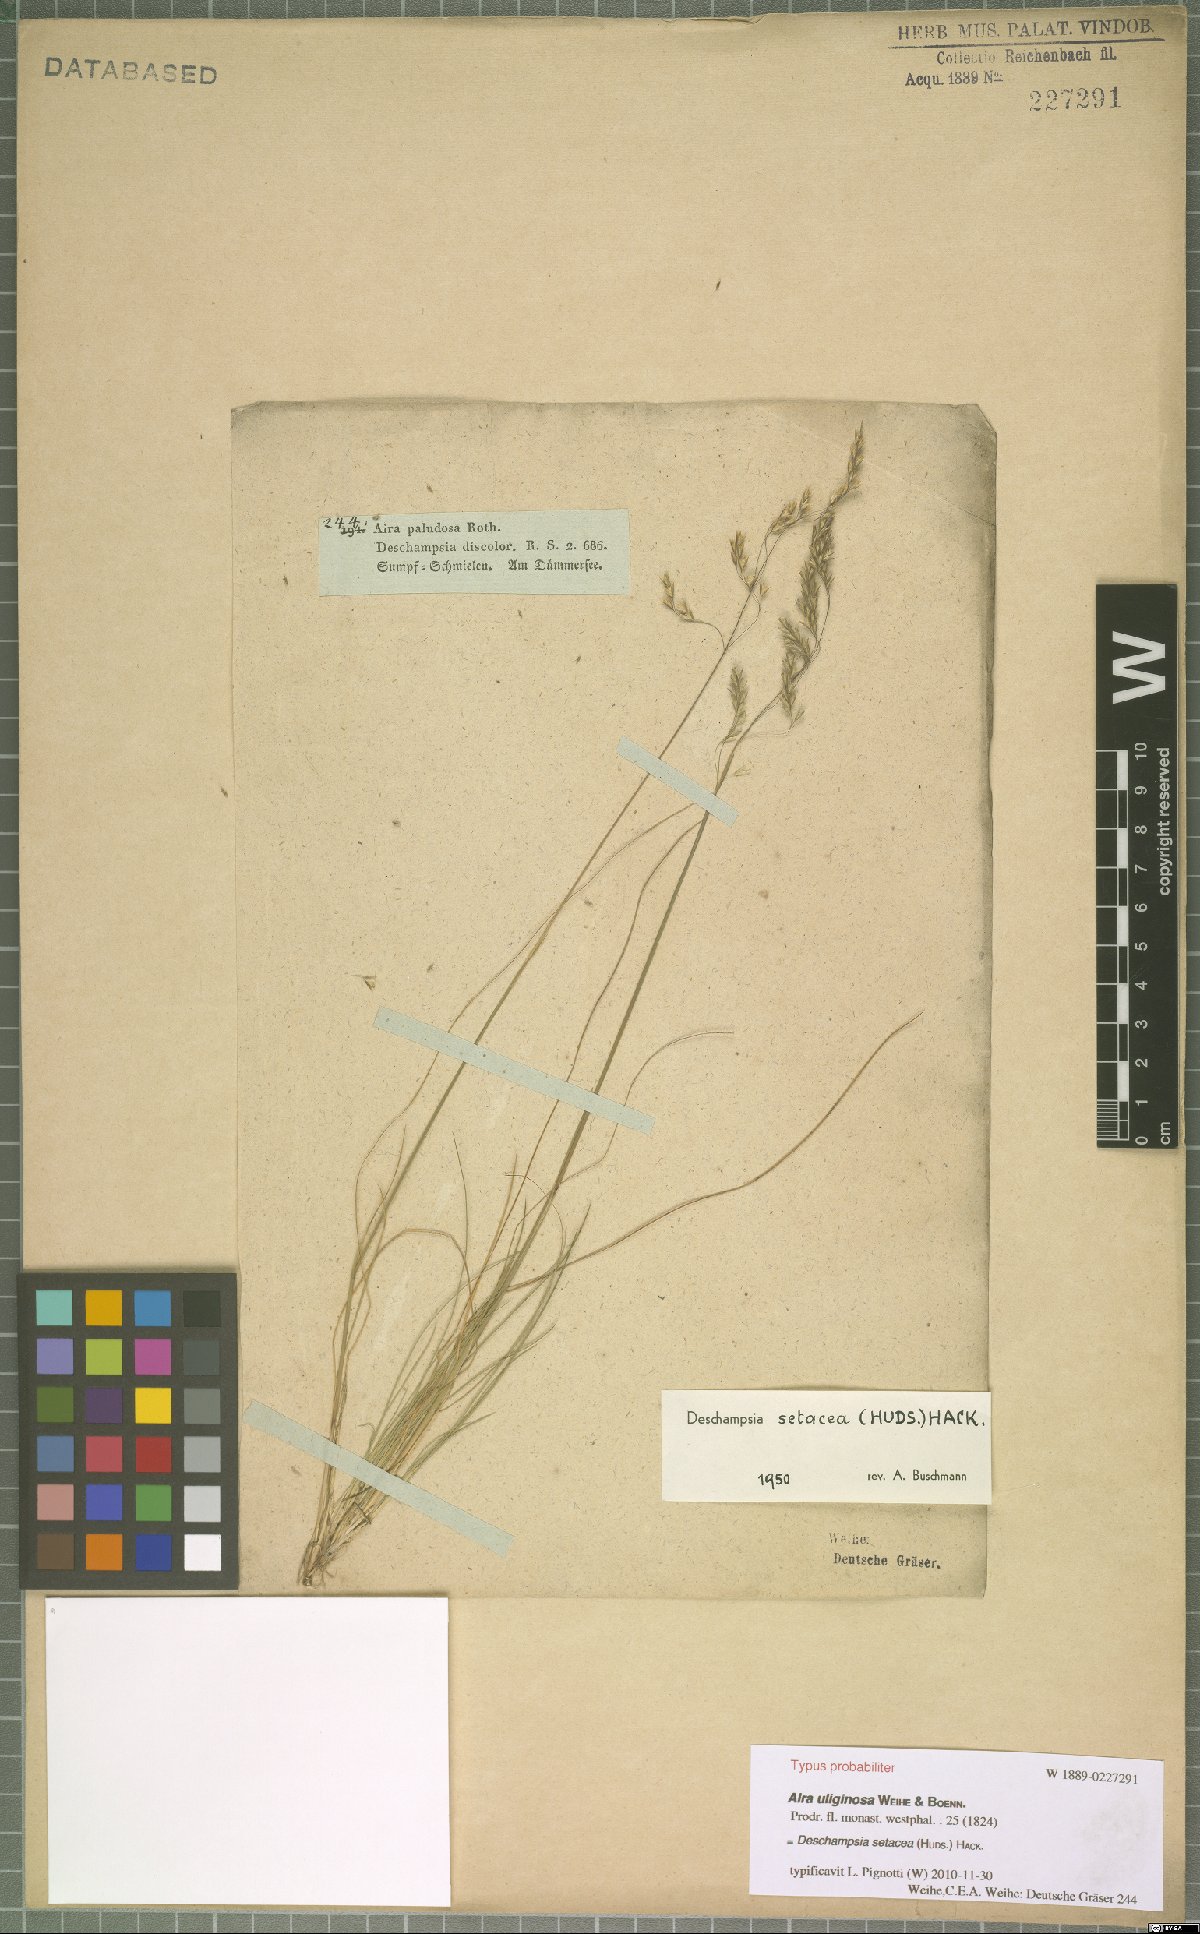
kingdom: Plantae
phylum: Tracheophyta
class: Liliopsida
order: Poales
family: Poaceae
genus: Deschampsia
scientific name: Deschampsia setacea
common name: Bog hair-grass
